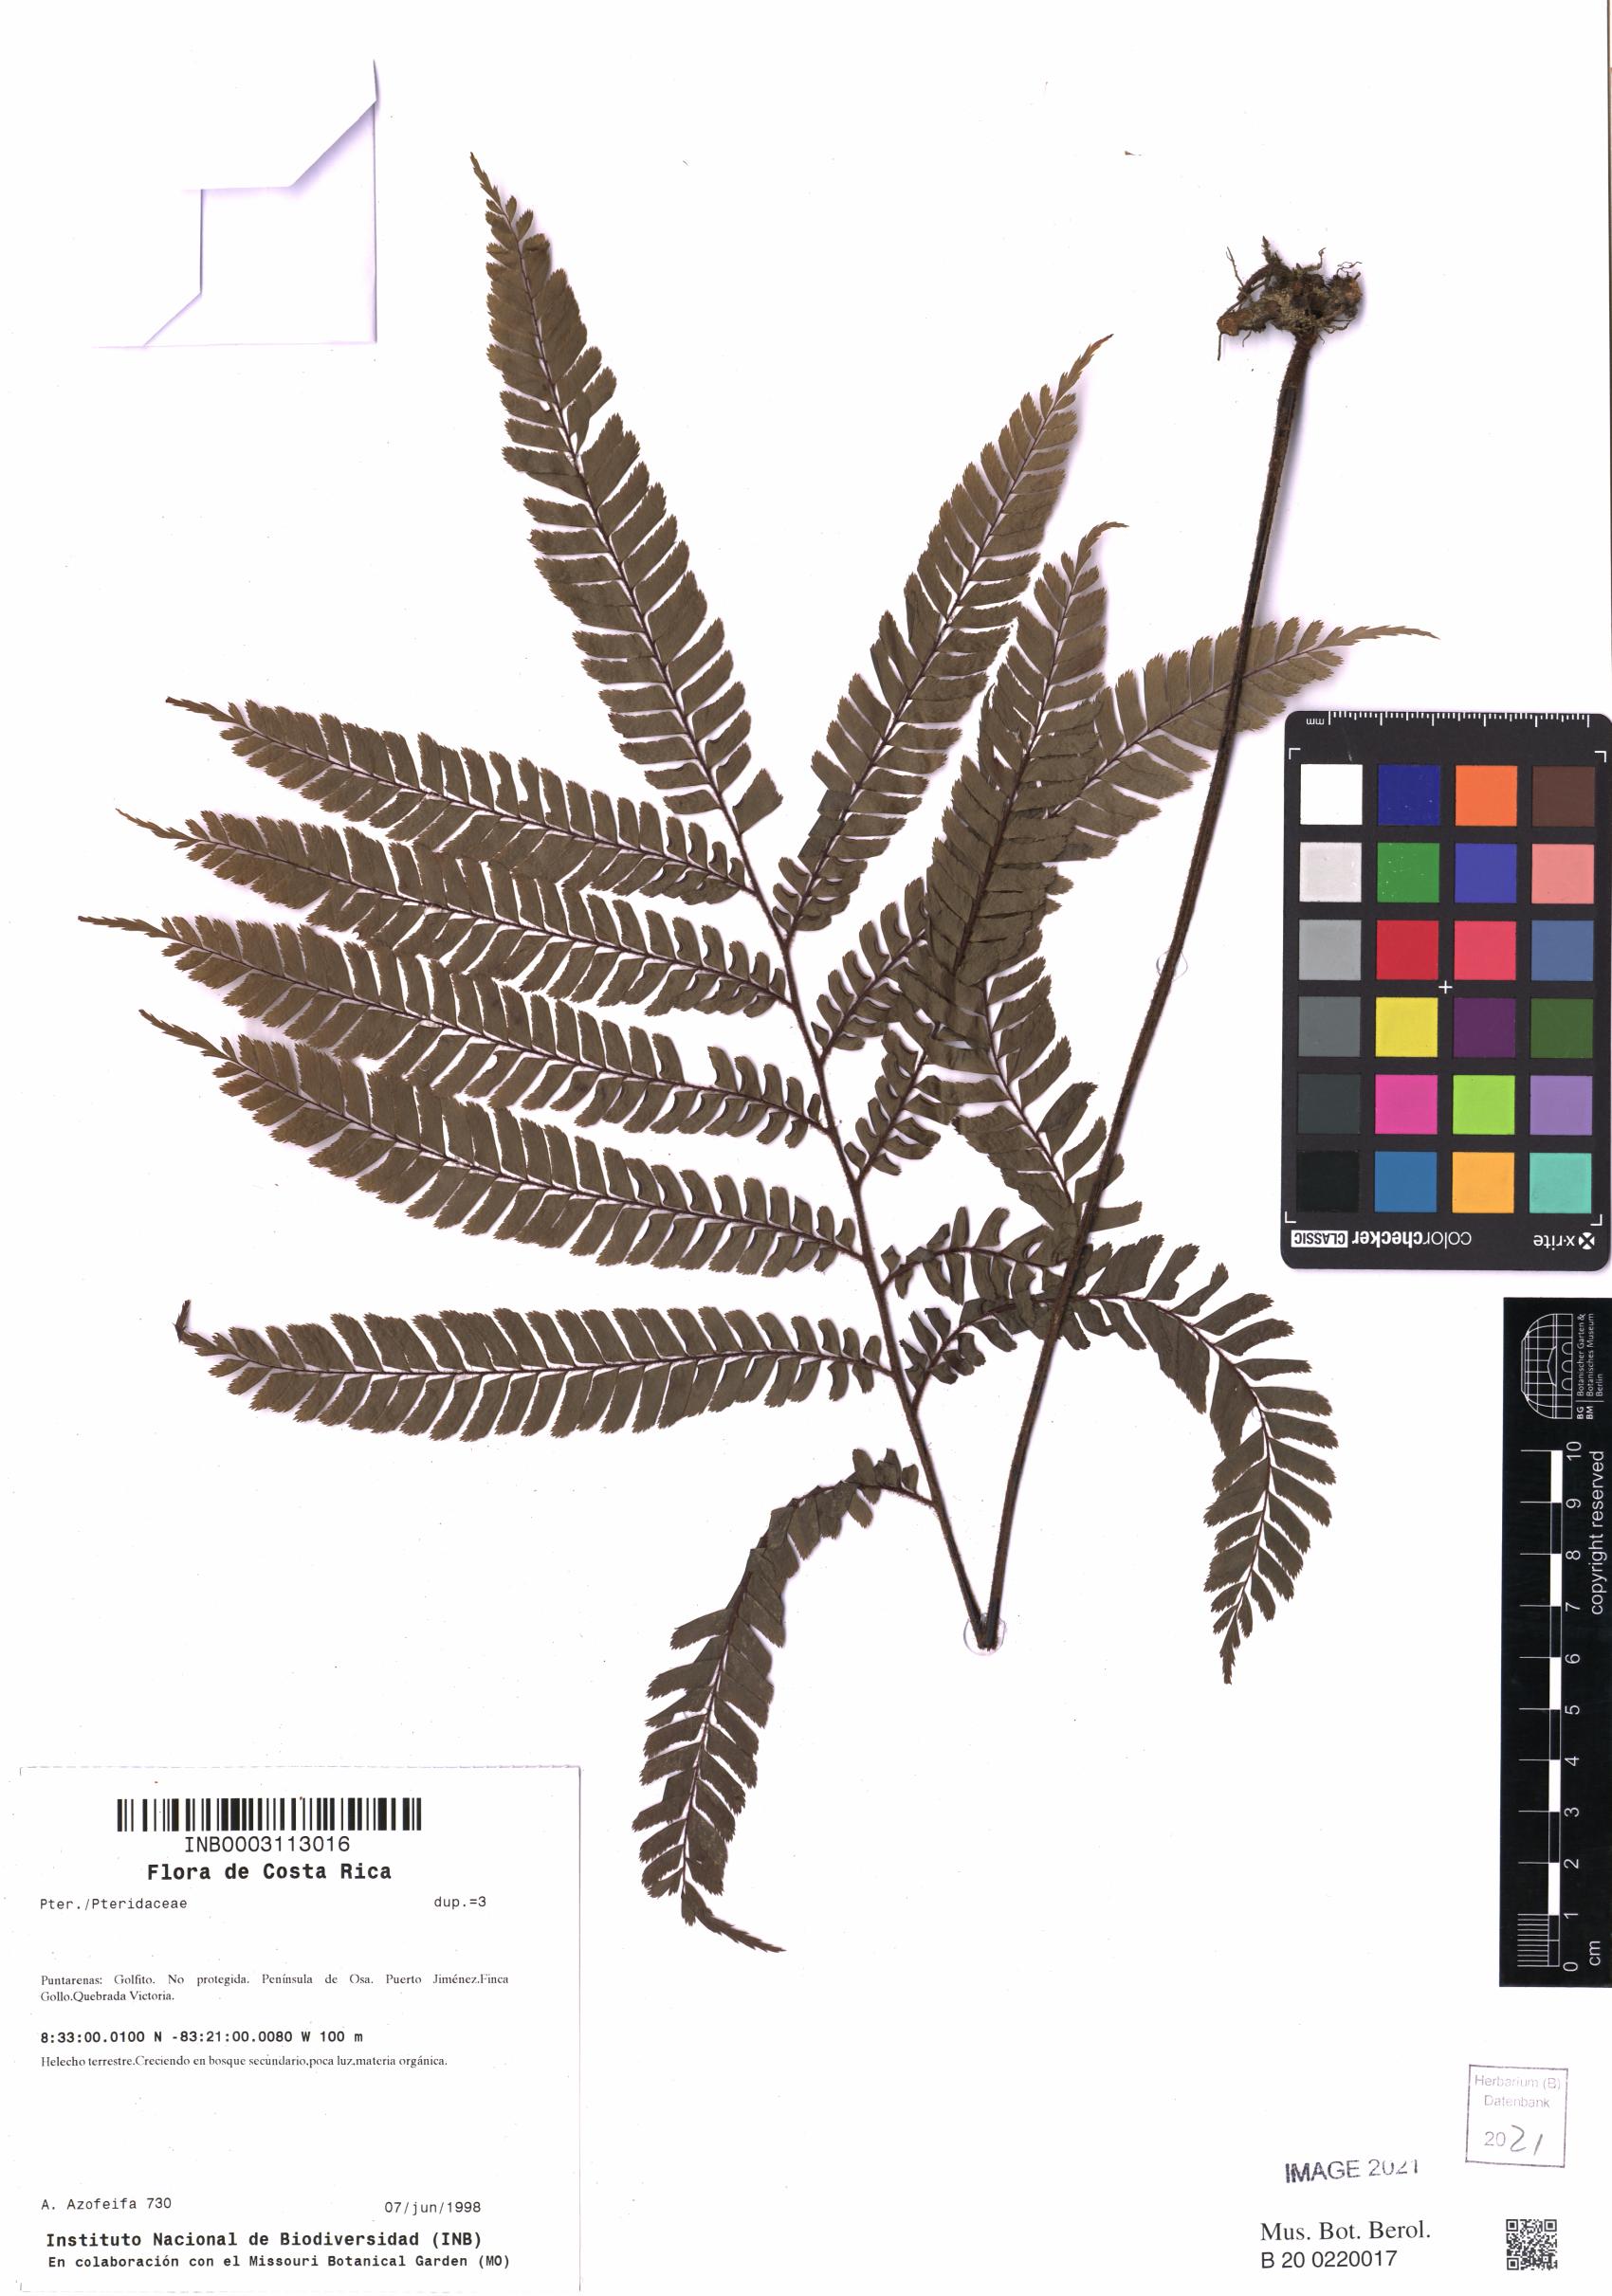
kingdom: Plantae
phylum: Tracheophyta
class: Polypodiopsida
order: Polypodiales
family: Pteridaceae
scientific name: Pteridaceae
